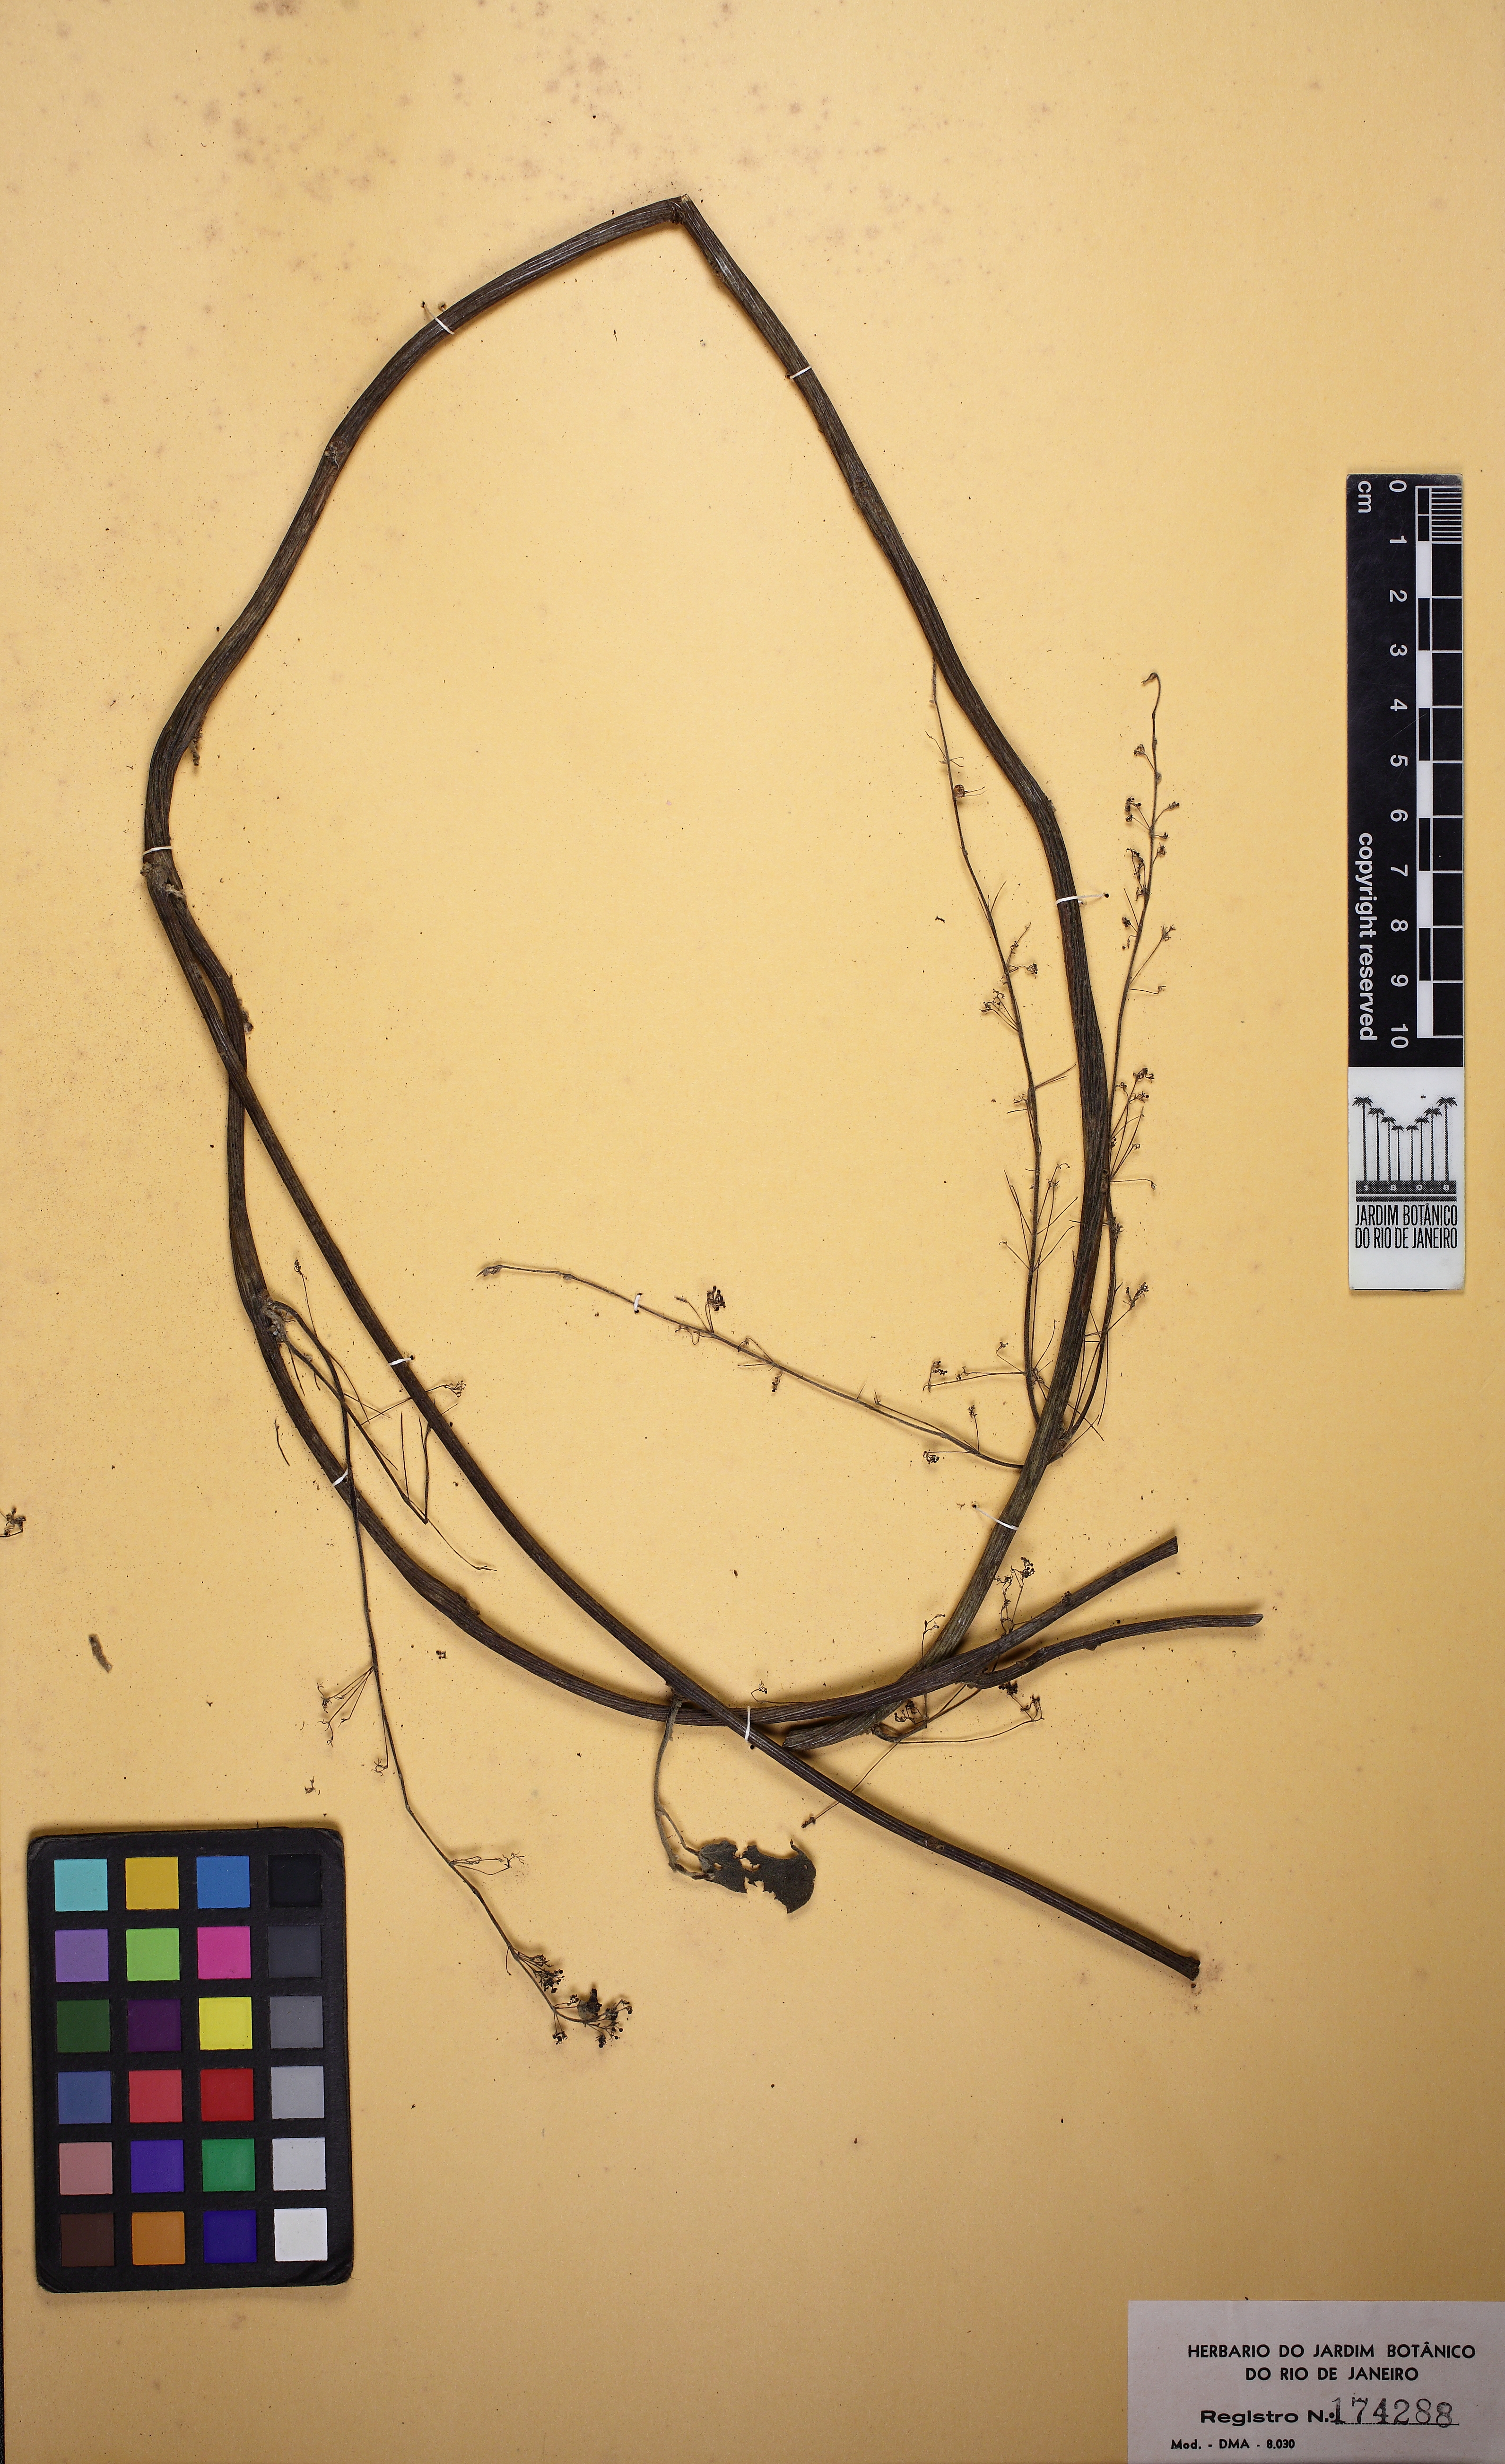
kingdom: Plantae
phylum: Tracheophyta
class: Magnoliopsida
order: Ranunculales
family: Menispermaceae
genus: Cissampelos
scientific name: Cissampelos andromorpha
